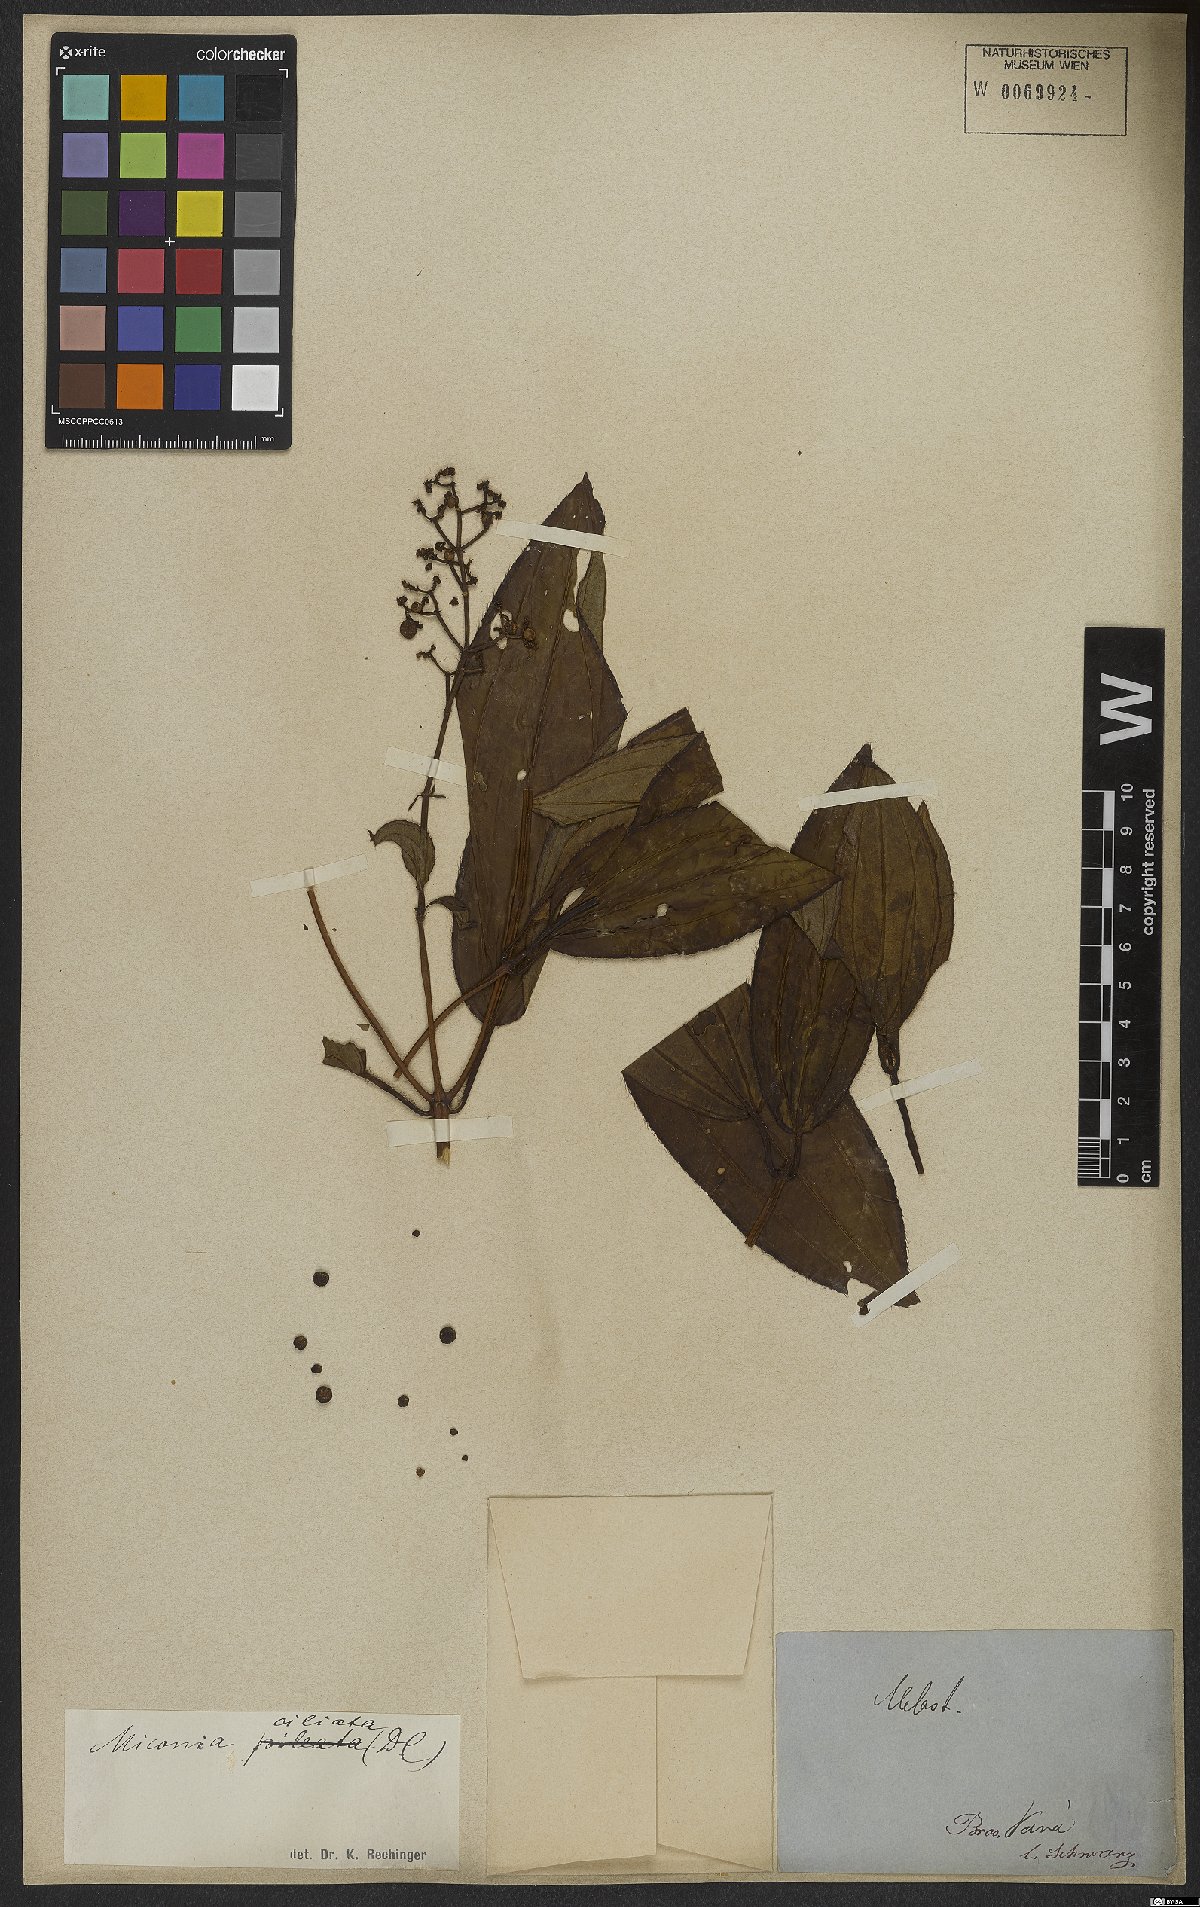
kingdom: Plantae
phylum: Tracheophyta
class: Magnoliopsida
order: Myrtales
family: Melastomataceae
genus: Miconia
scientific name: Miconia ciliata
